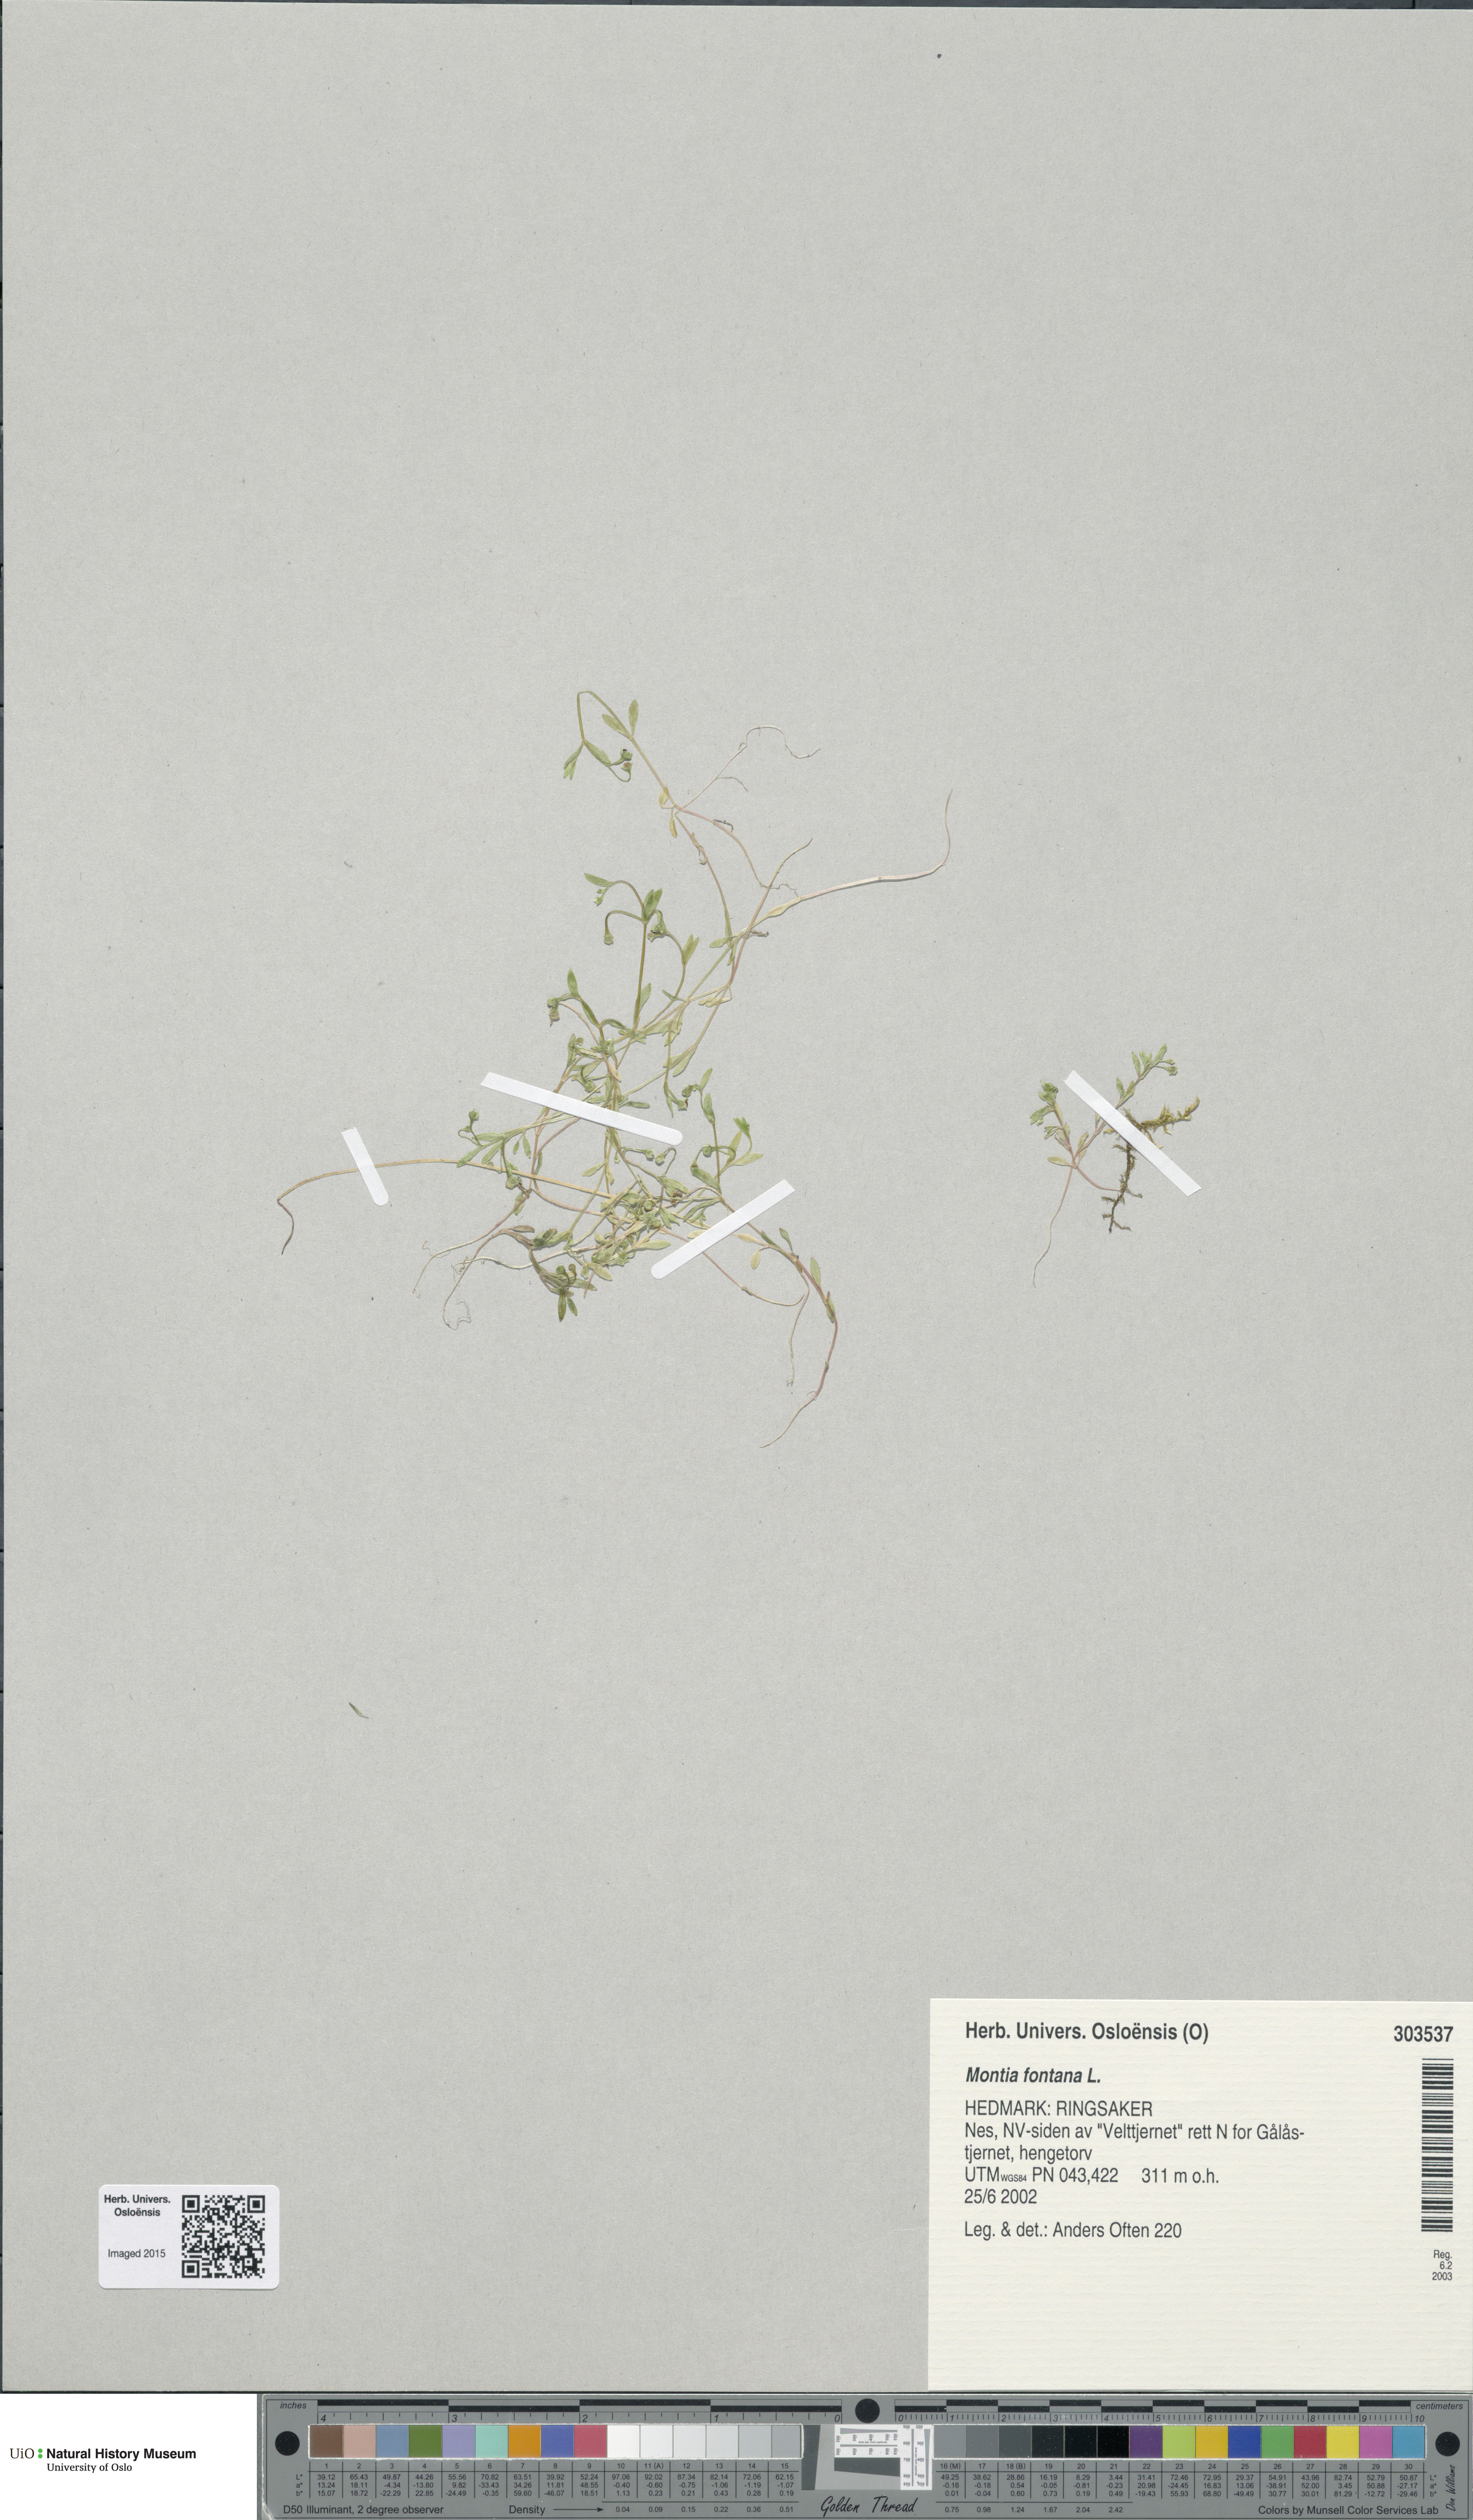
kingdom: Plantae
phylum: Tracheophyta
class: Magnoliopsida
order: Caryophyllales
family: Montiaceae
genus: Montia
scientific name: Montia fontana
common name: Blinks
